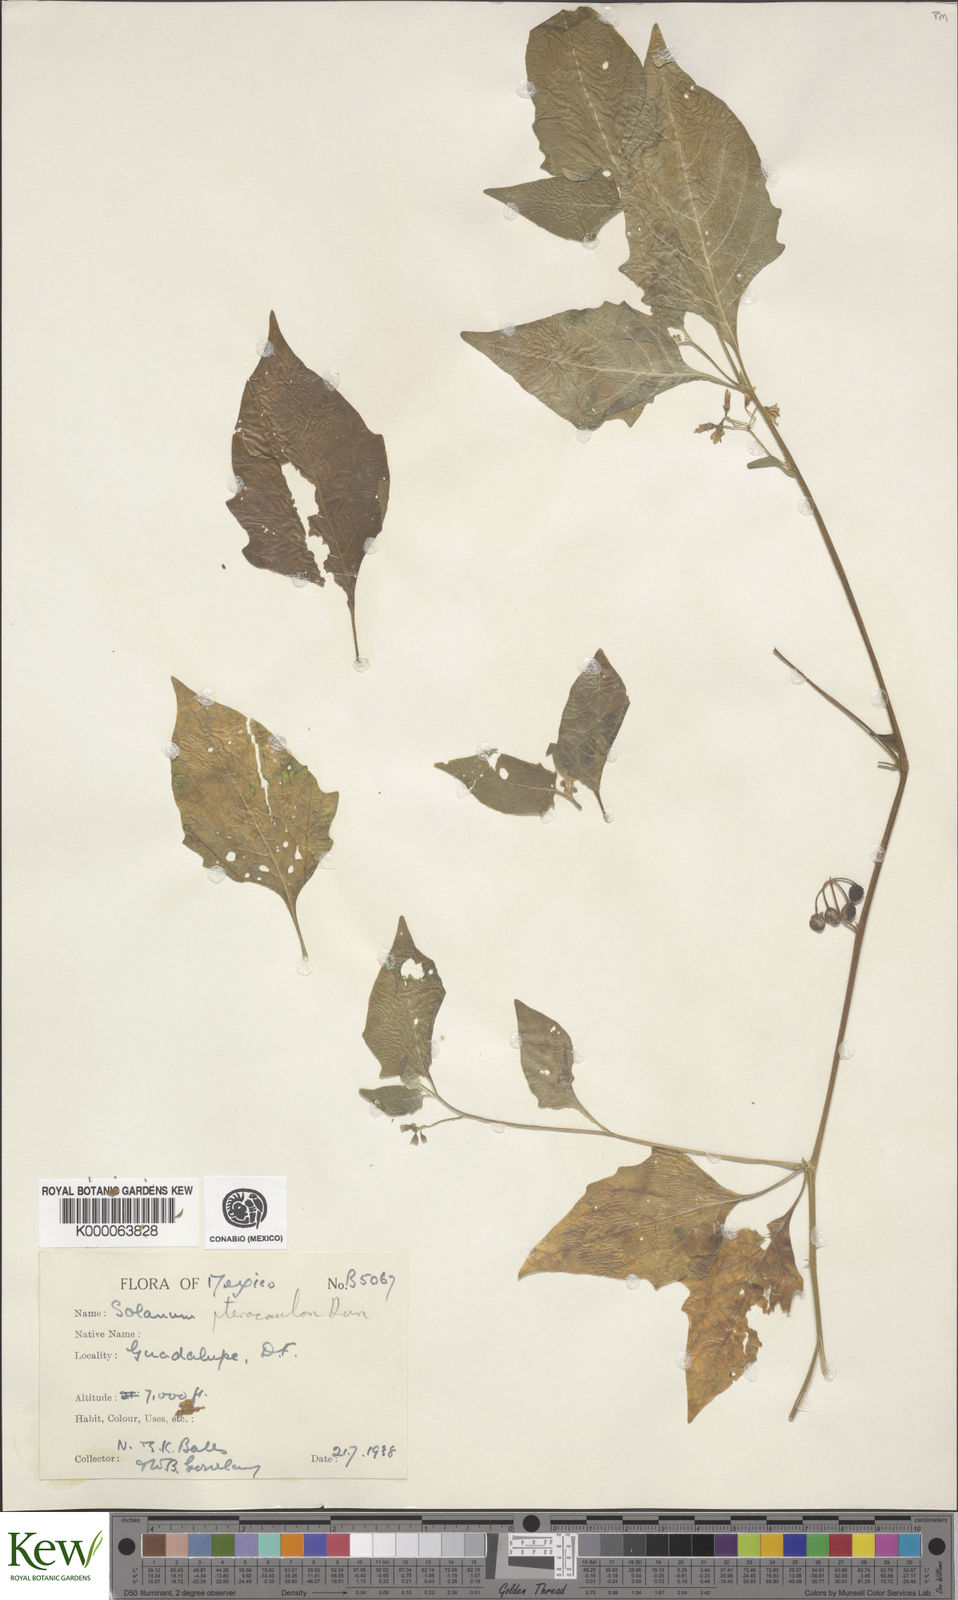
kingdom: Plantae
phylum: Tracheophyta
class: Magnoliopsida
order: Solanales
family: Solanaceae
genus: Solanum
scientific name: Solanum
